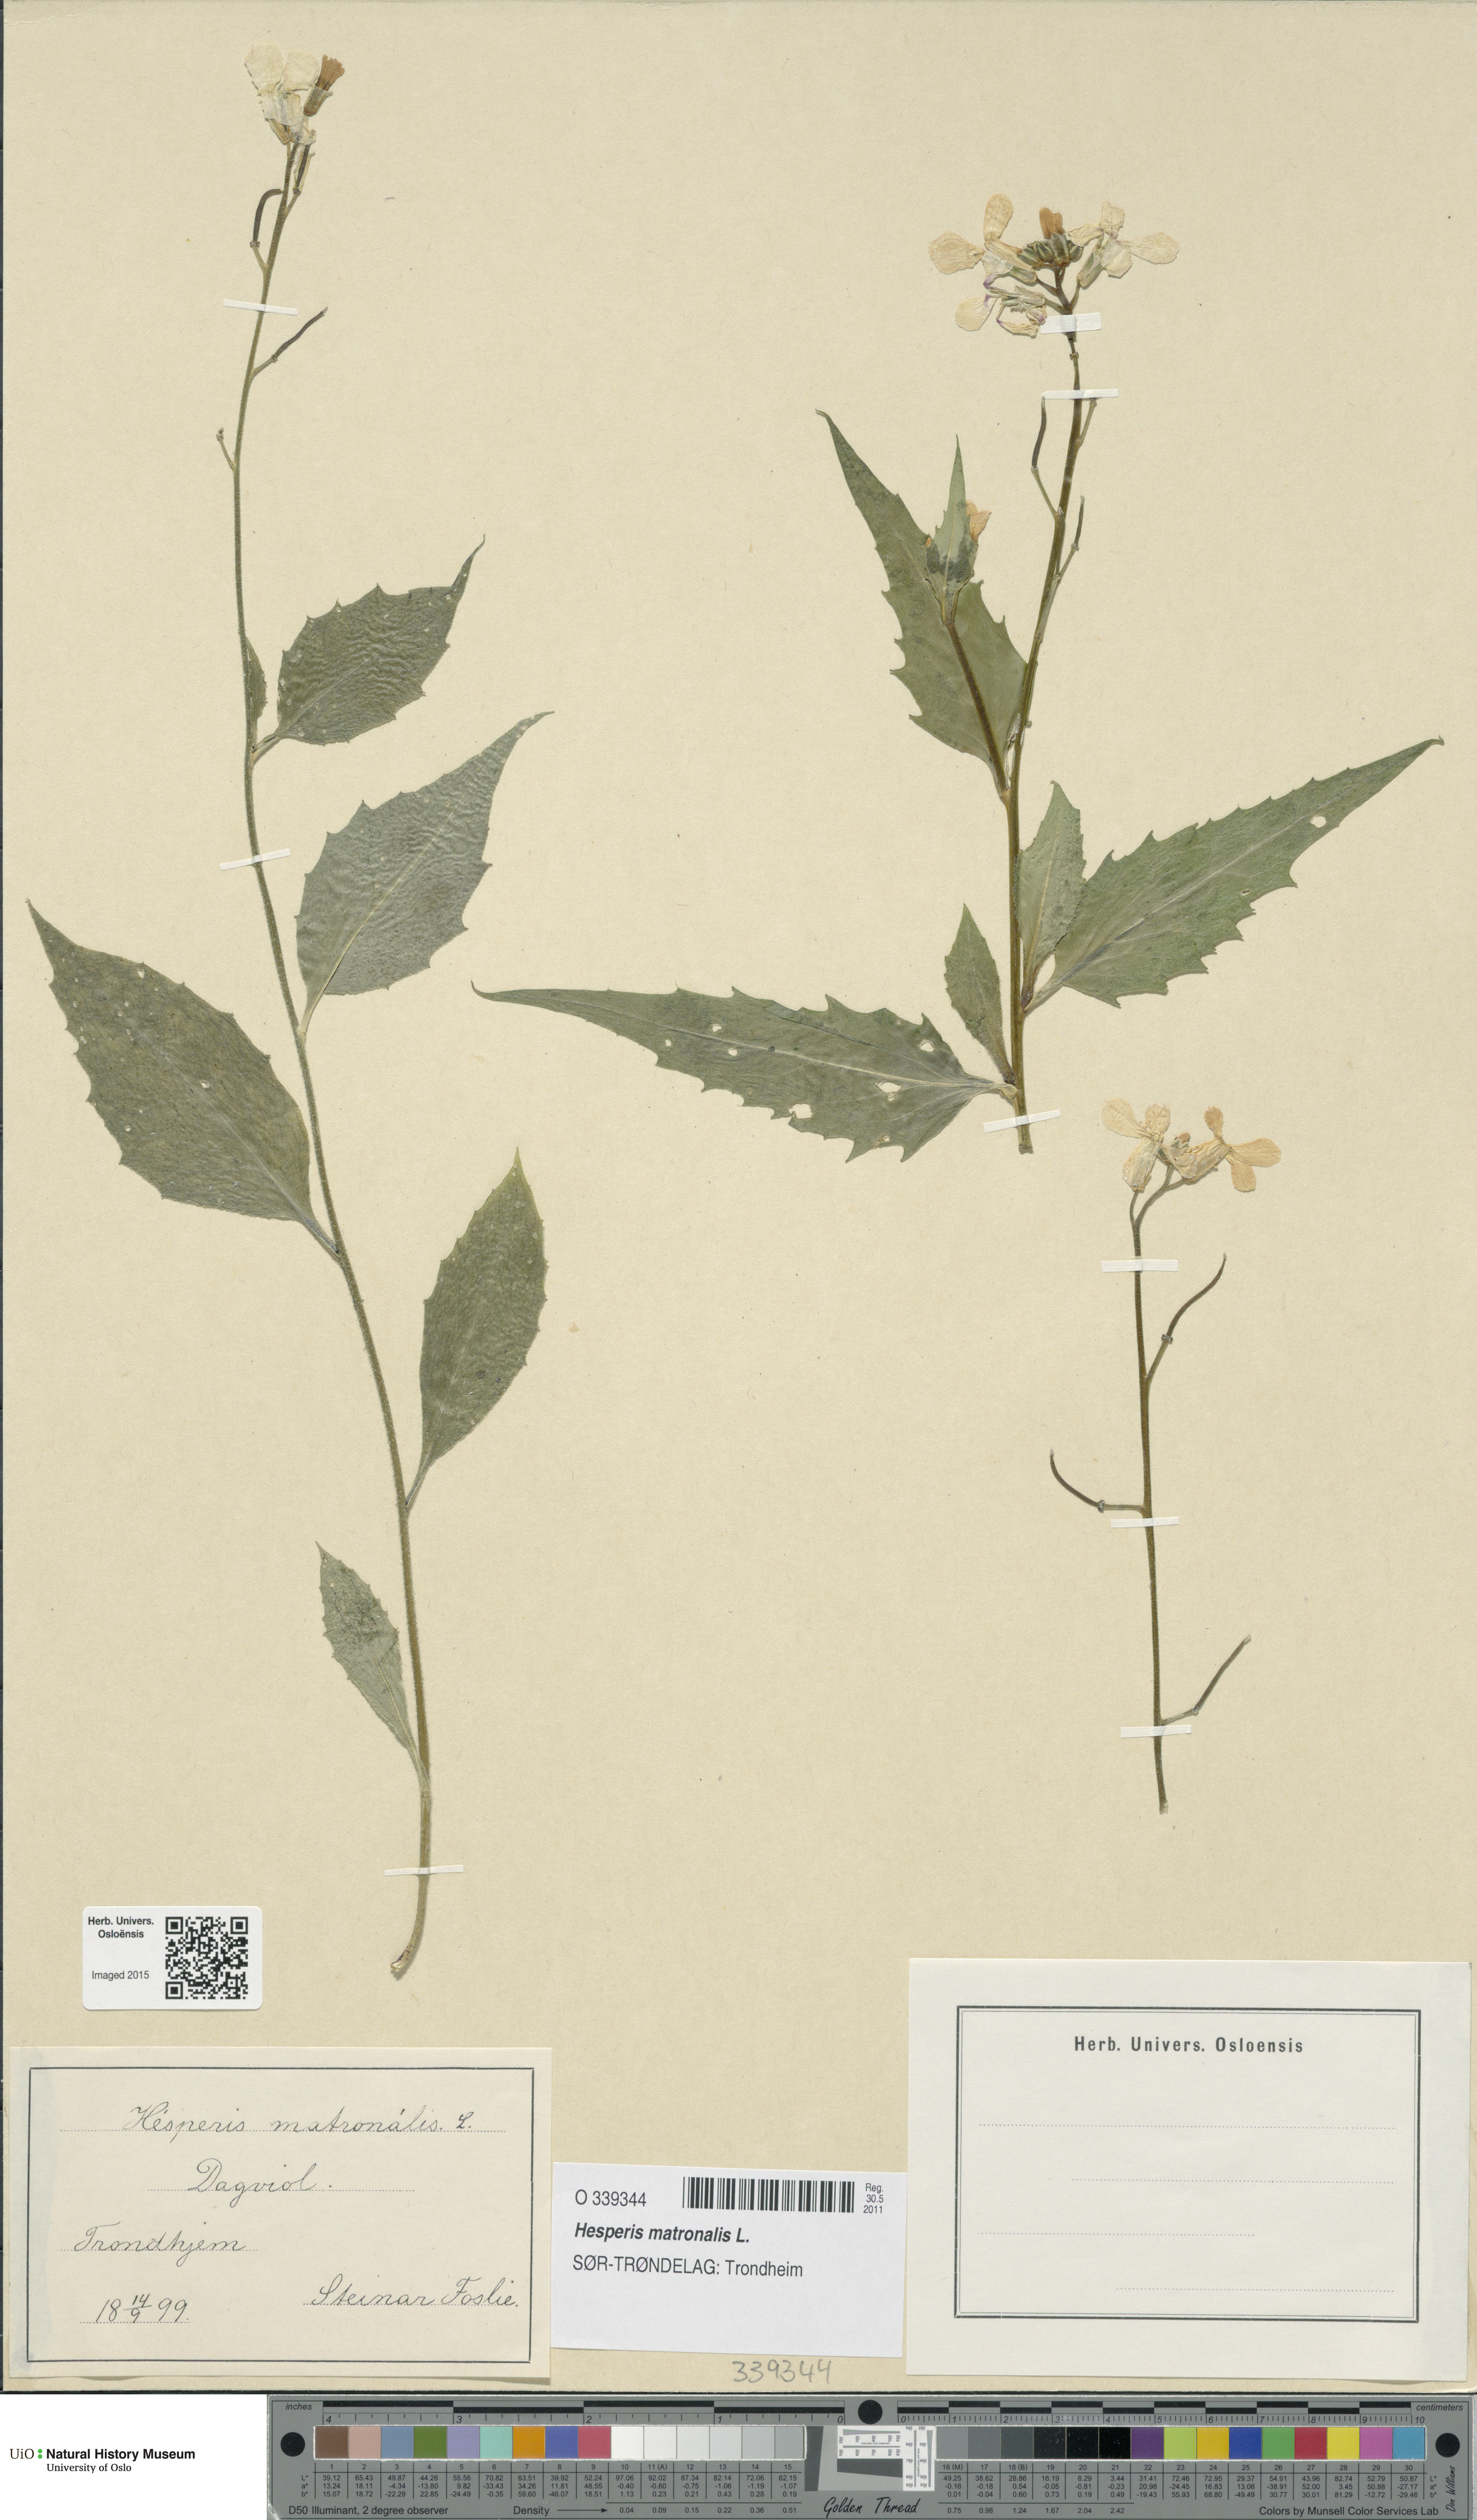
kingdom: Plantae
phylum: Tracheophyta
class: Magnoliopsida
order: Brassicales
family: Brassicaceae
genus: Hesperis
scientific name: Hesperis matronalis
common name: Dame's-violet
